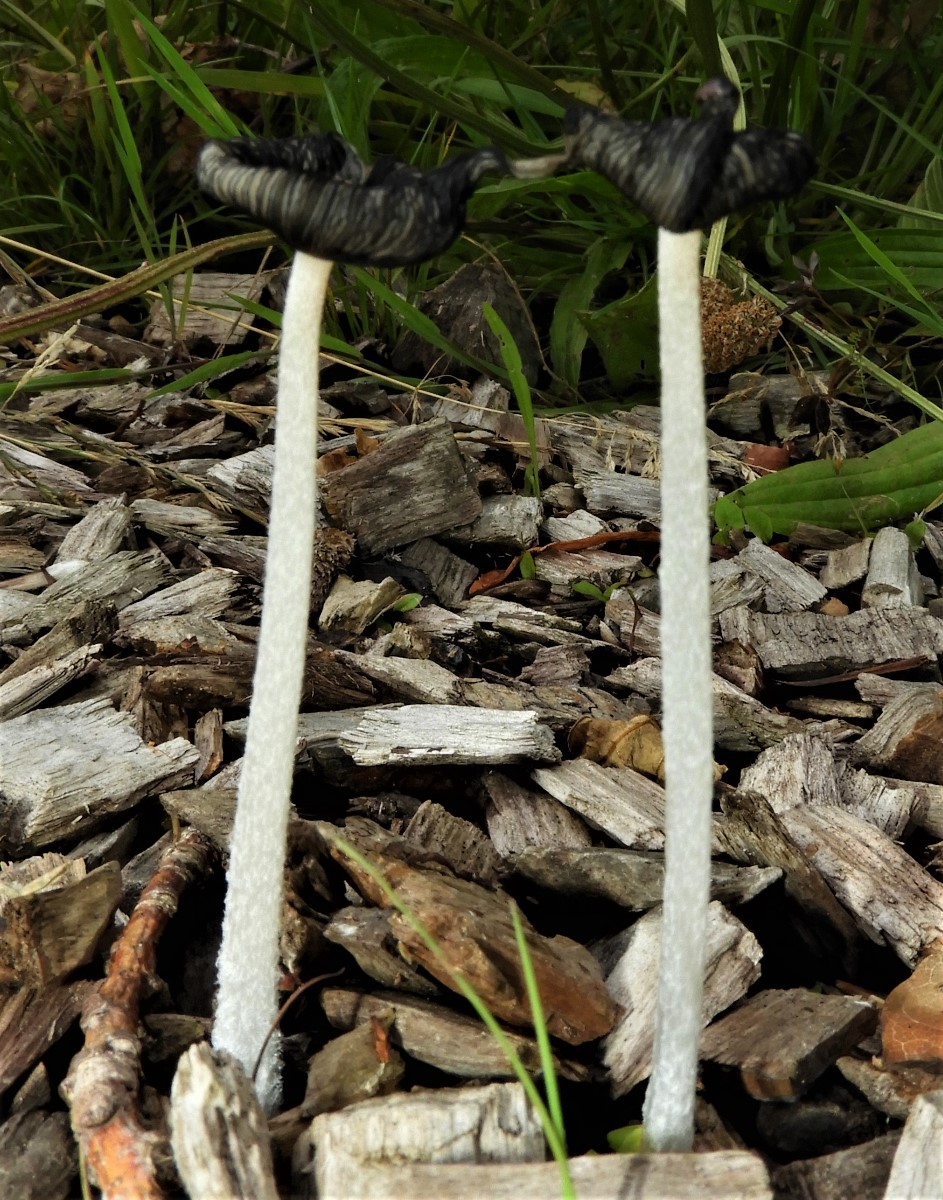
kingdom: Fungi
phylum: Basidiomycota
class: Agaricomycetes
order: Agaricales
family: Psathyrellaceae
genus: Coprinopsis
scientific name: Coprinopsis lagopus
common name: dunstokket blækhat
